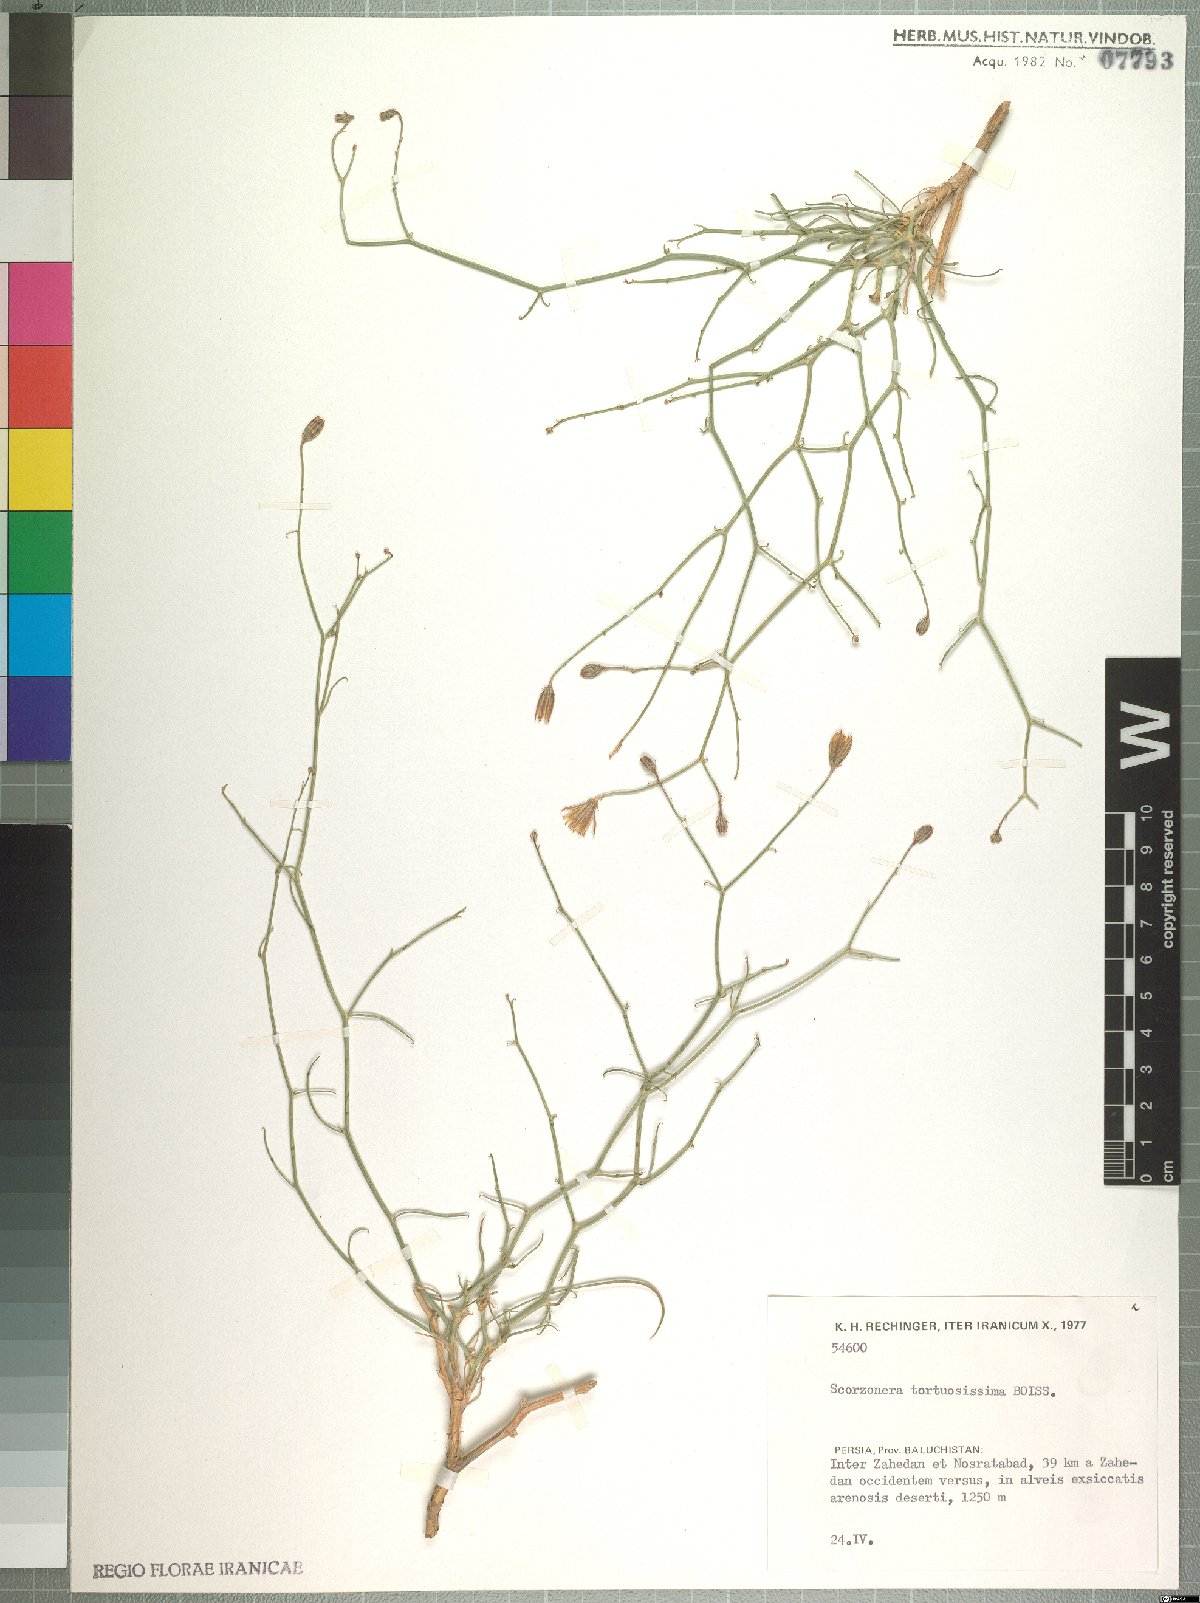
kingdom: Plantae
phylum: Tracheophyta
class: Magnoliopsida
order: Asterales
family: Asteraceae
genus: Ramaliella
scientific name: Ramaliella tortuosissima
